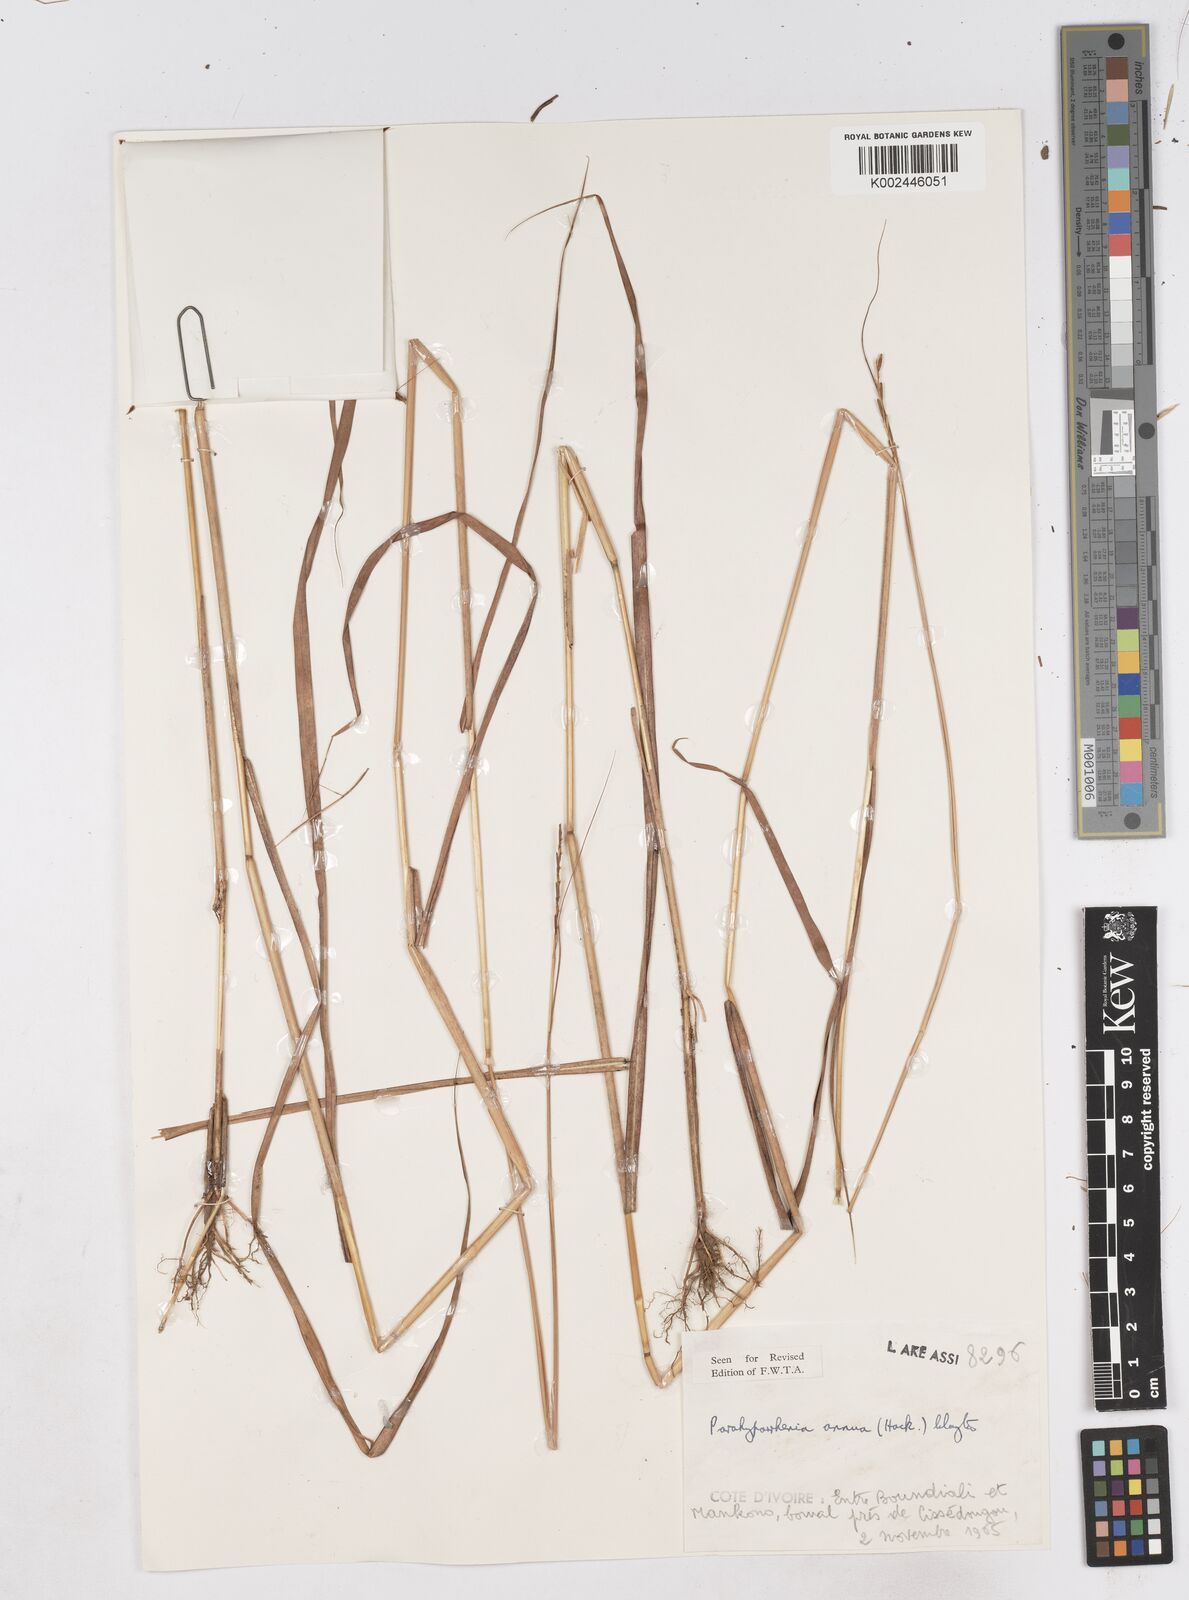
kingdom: Plantae
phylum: Tracheophyta
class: Liliopsida
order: Poales
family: Poaceae
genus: Parahyparrhenia
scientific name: Parahyparrhenia annua
